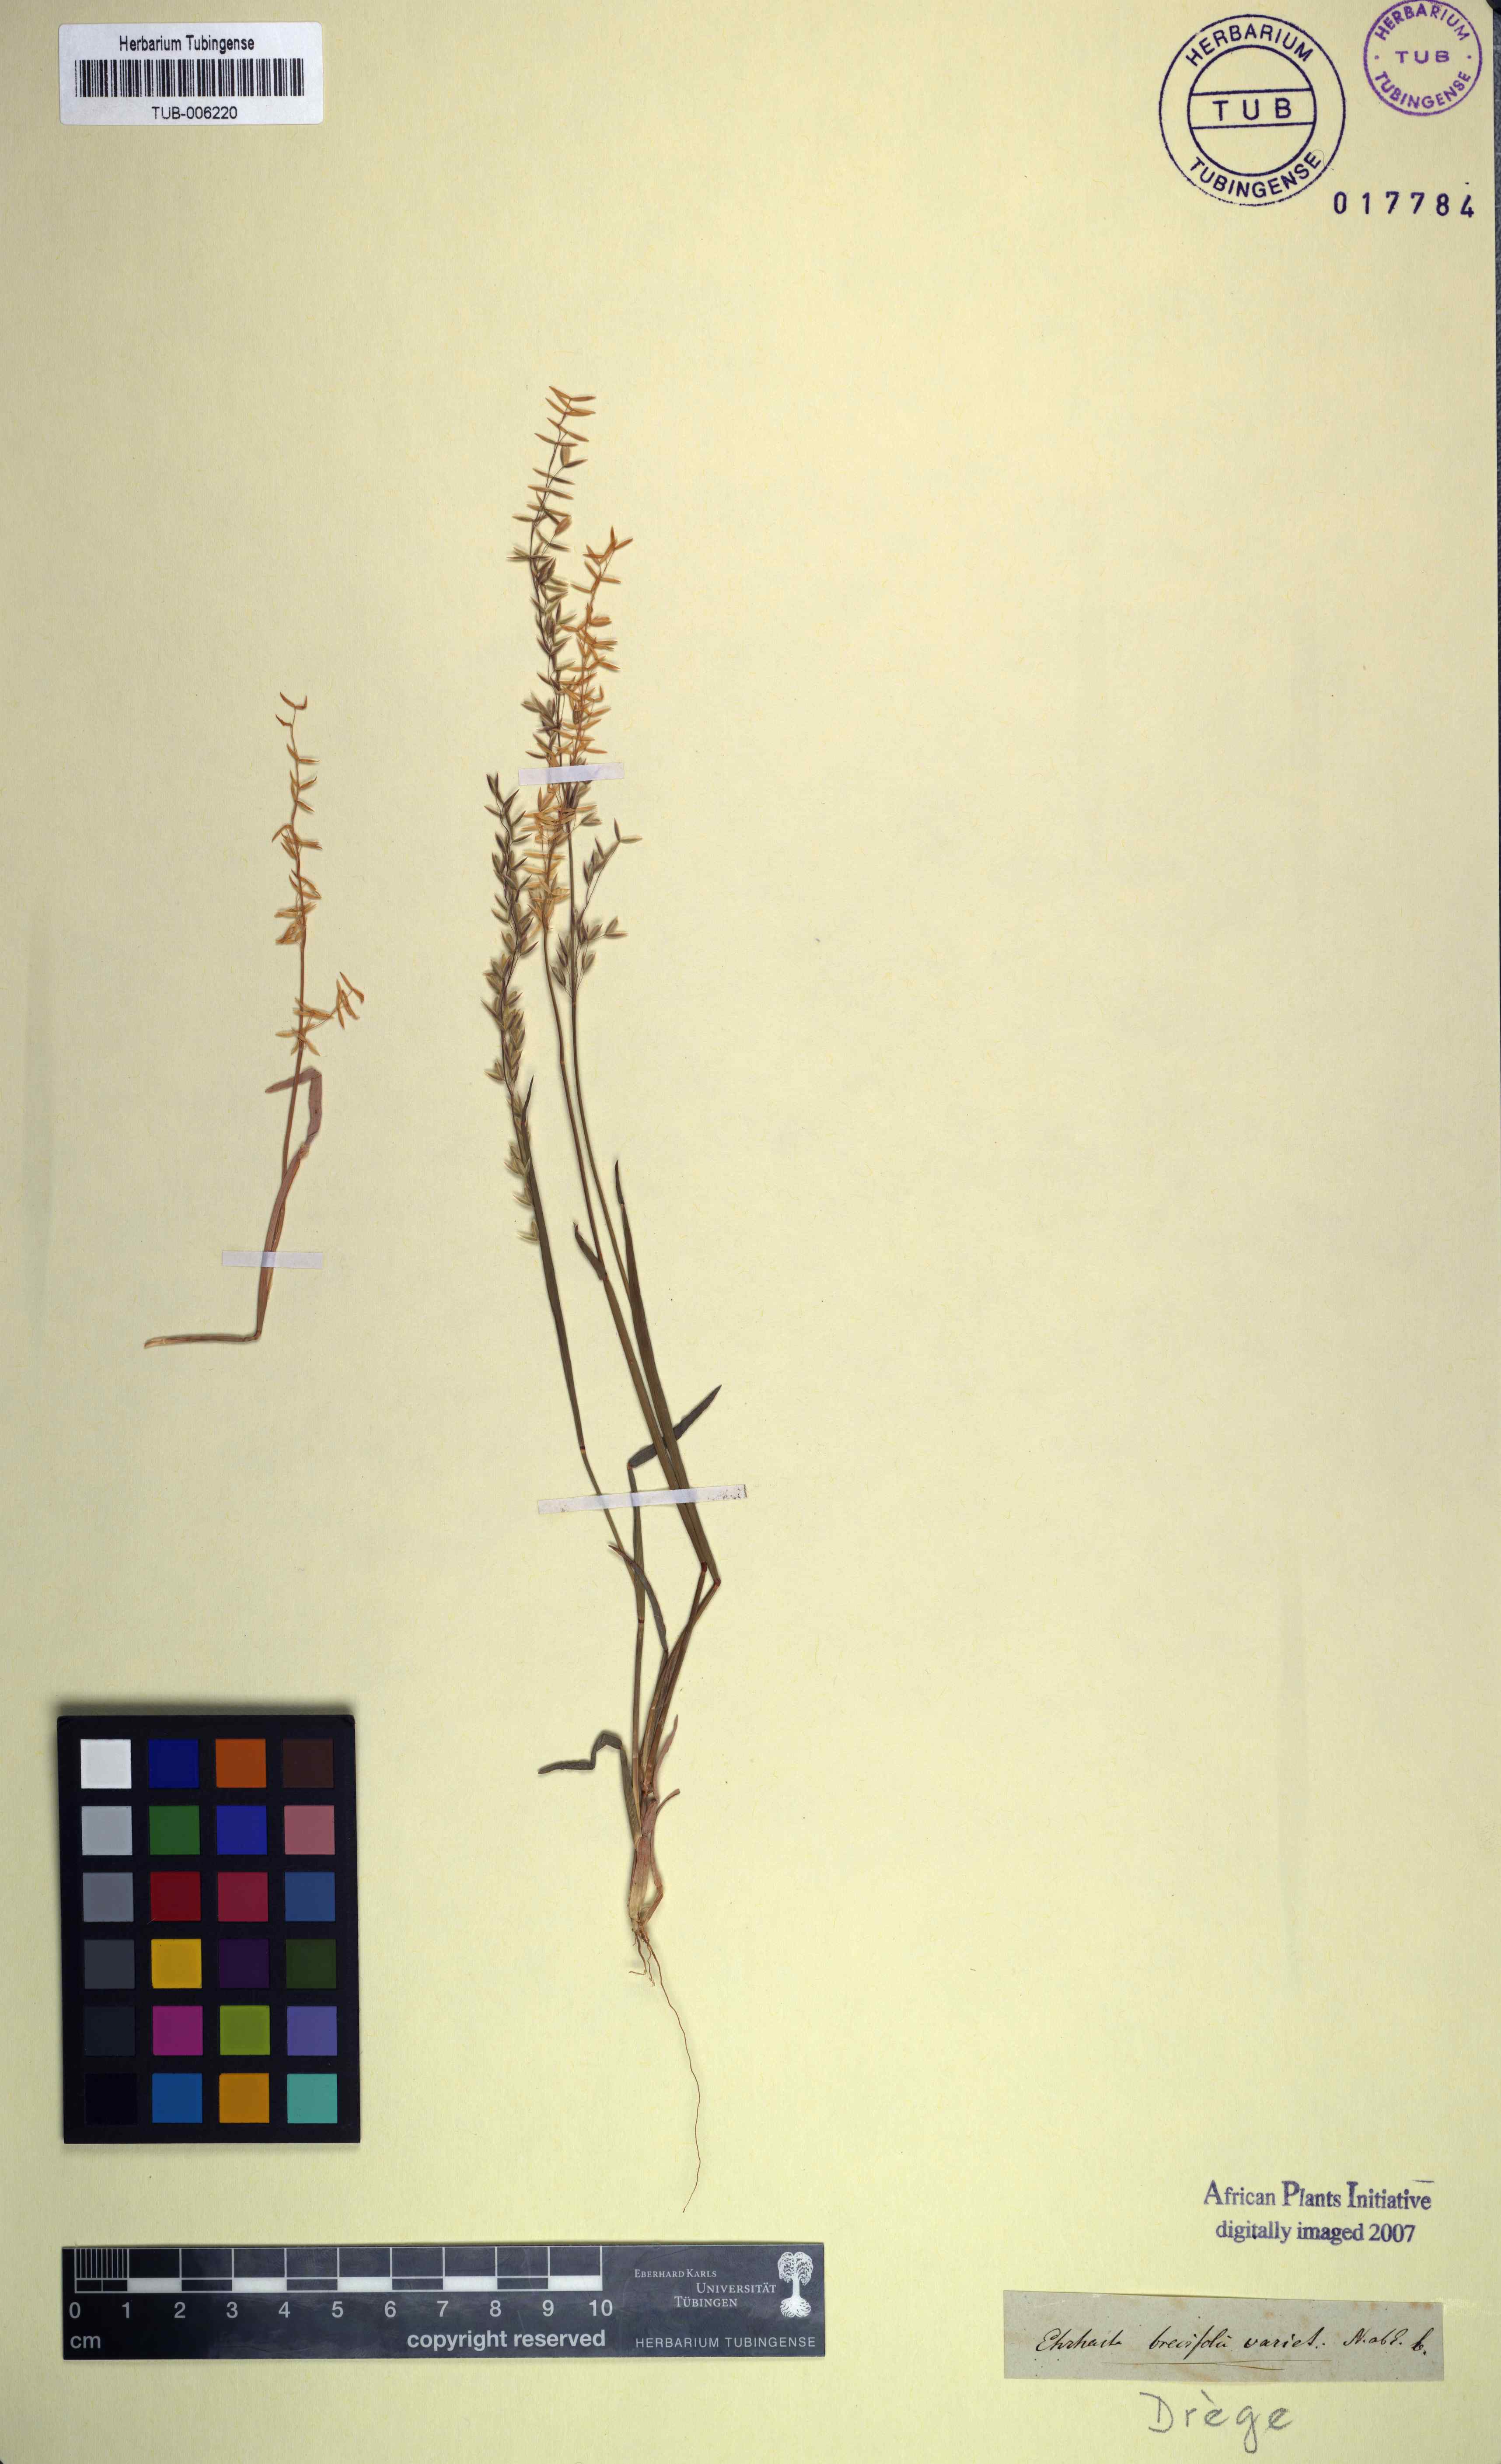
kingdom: Plantae
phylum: Tracheophyta
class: Liliopsida
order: Poales
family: Poaceae
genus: Ehrharta
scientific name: Ehrharta brevifolia
